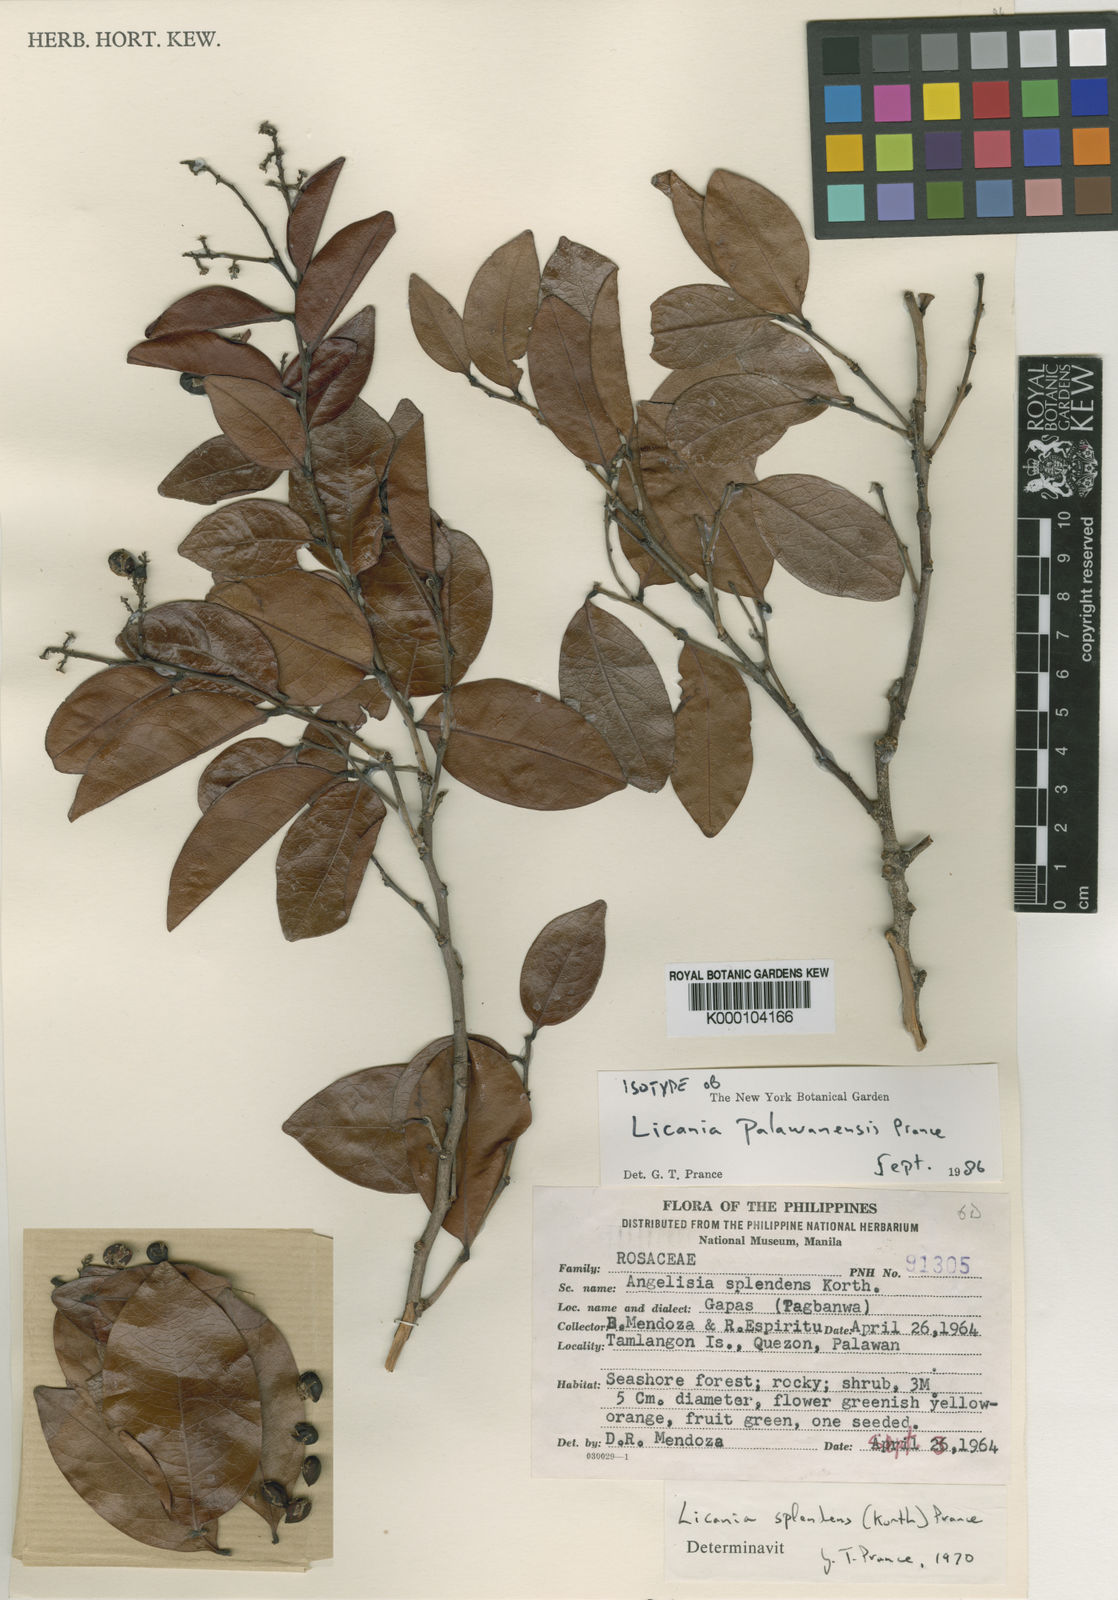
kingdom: Plantae
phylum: Tracheophyta
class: Magnoliopsida
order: Malpighiales
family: Chrysobalanaceae
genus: Angelesia
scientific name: Angelesia palawanensis
